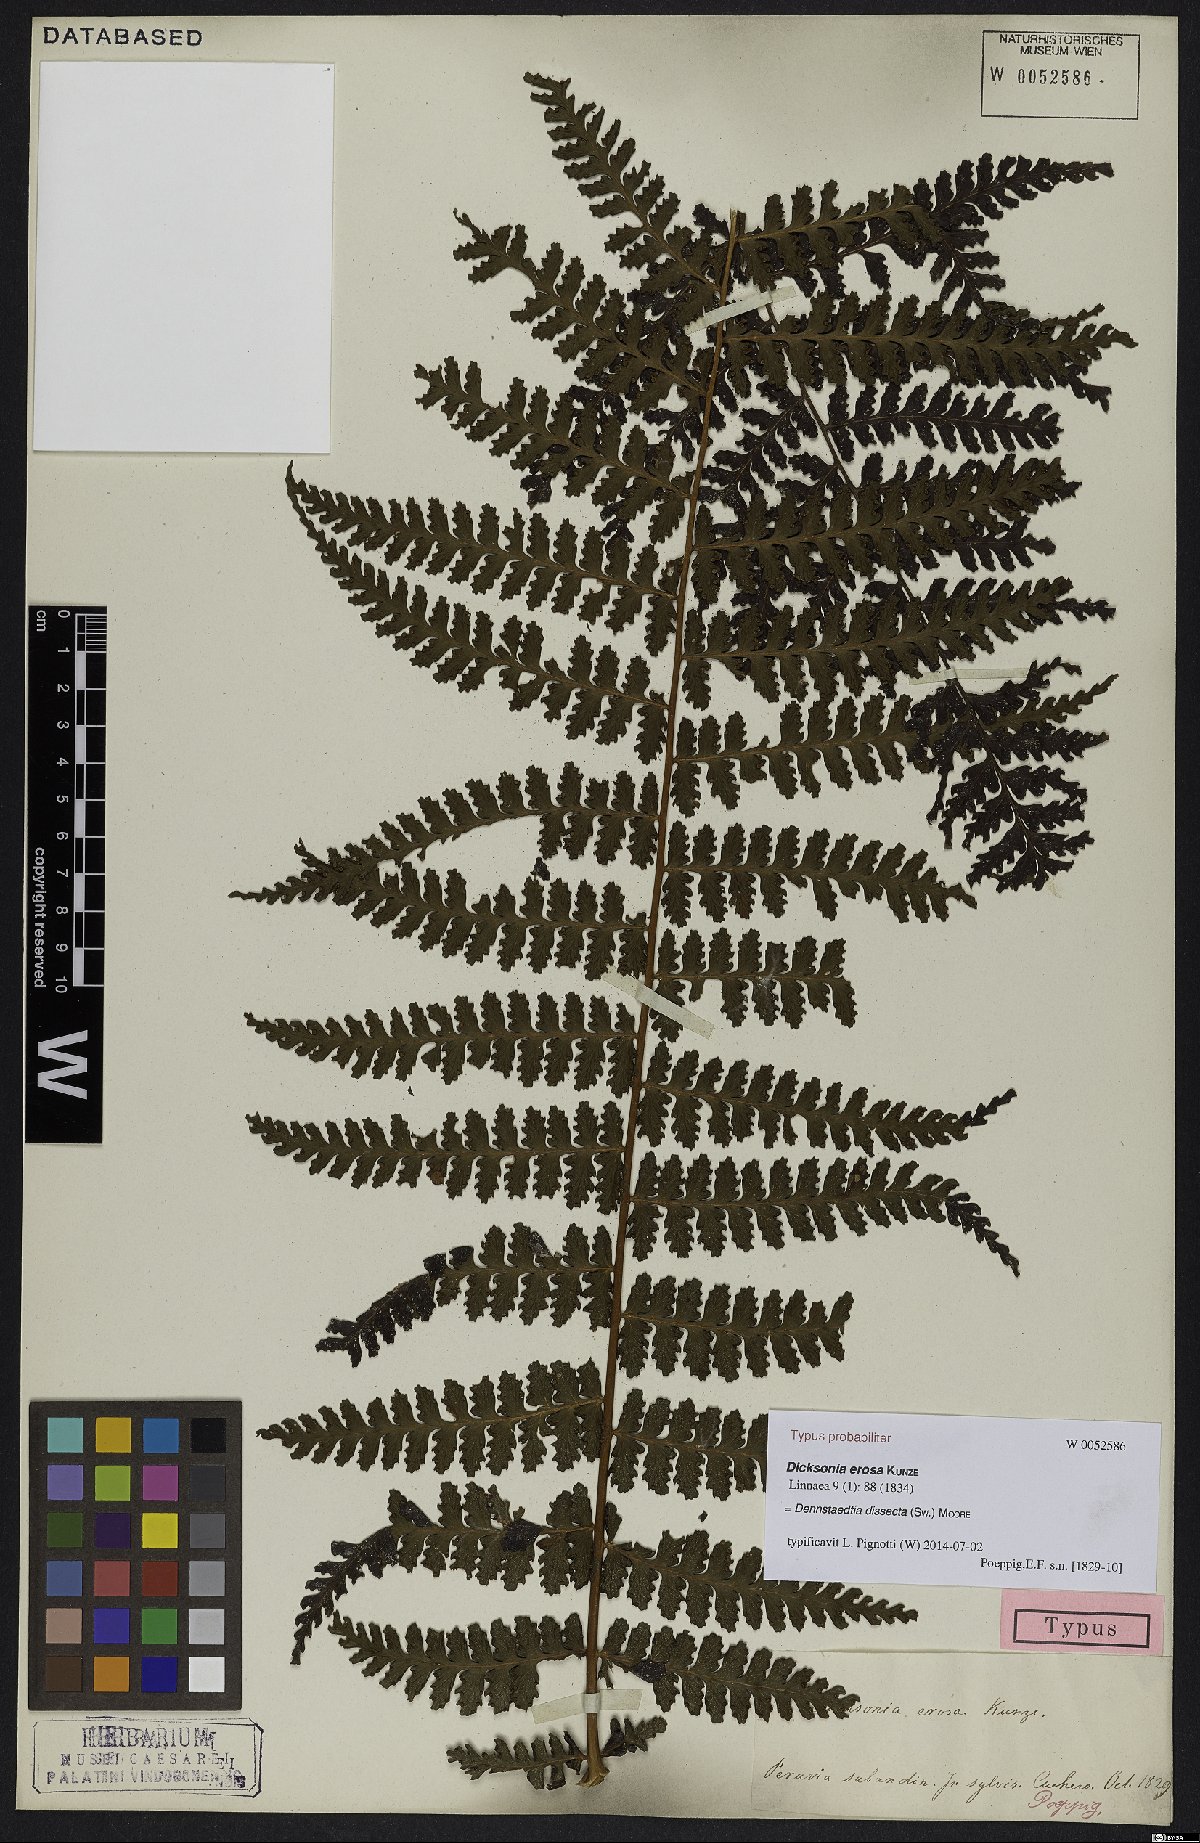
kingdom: Plantae
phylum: Tracheophyta
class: Polypodiopsida
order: Polypodiales
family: Dennstaedtiaceae
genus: Dennstaedtia
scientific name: Dennstaedtia dissecta
